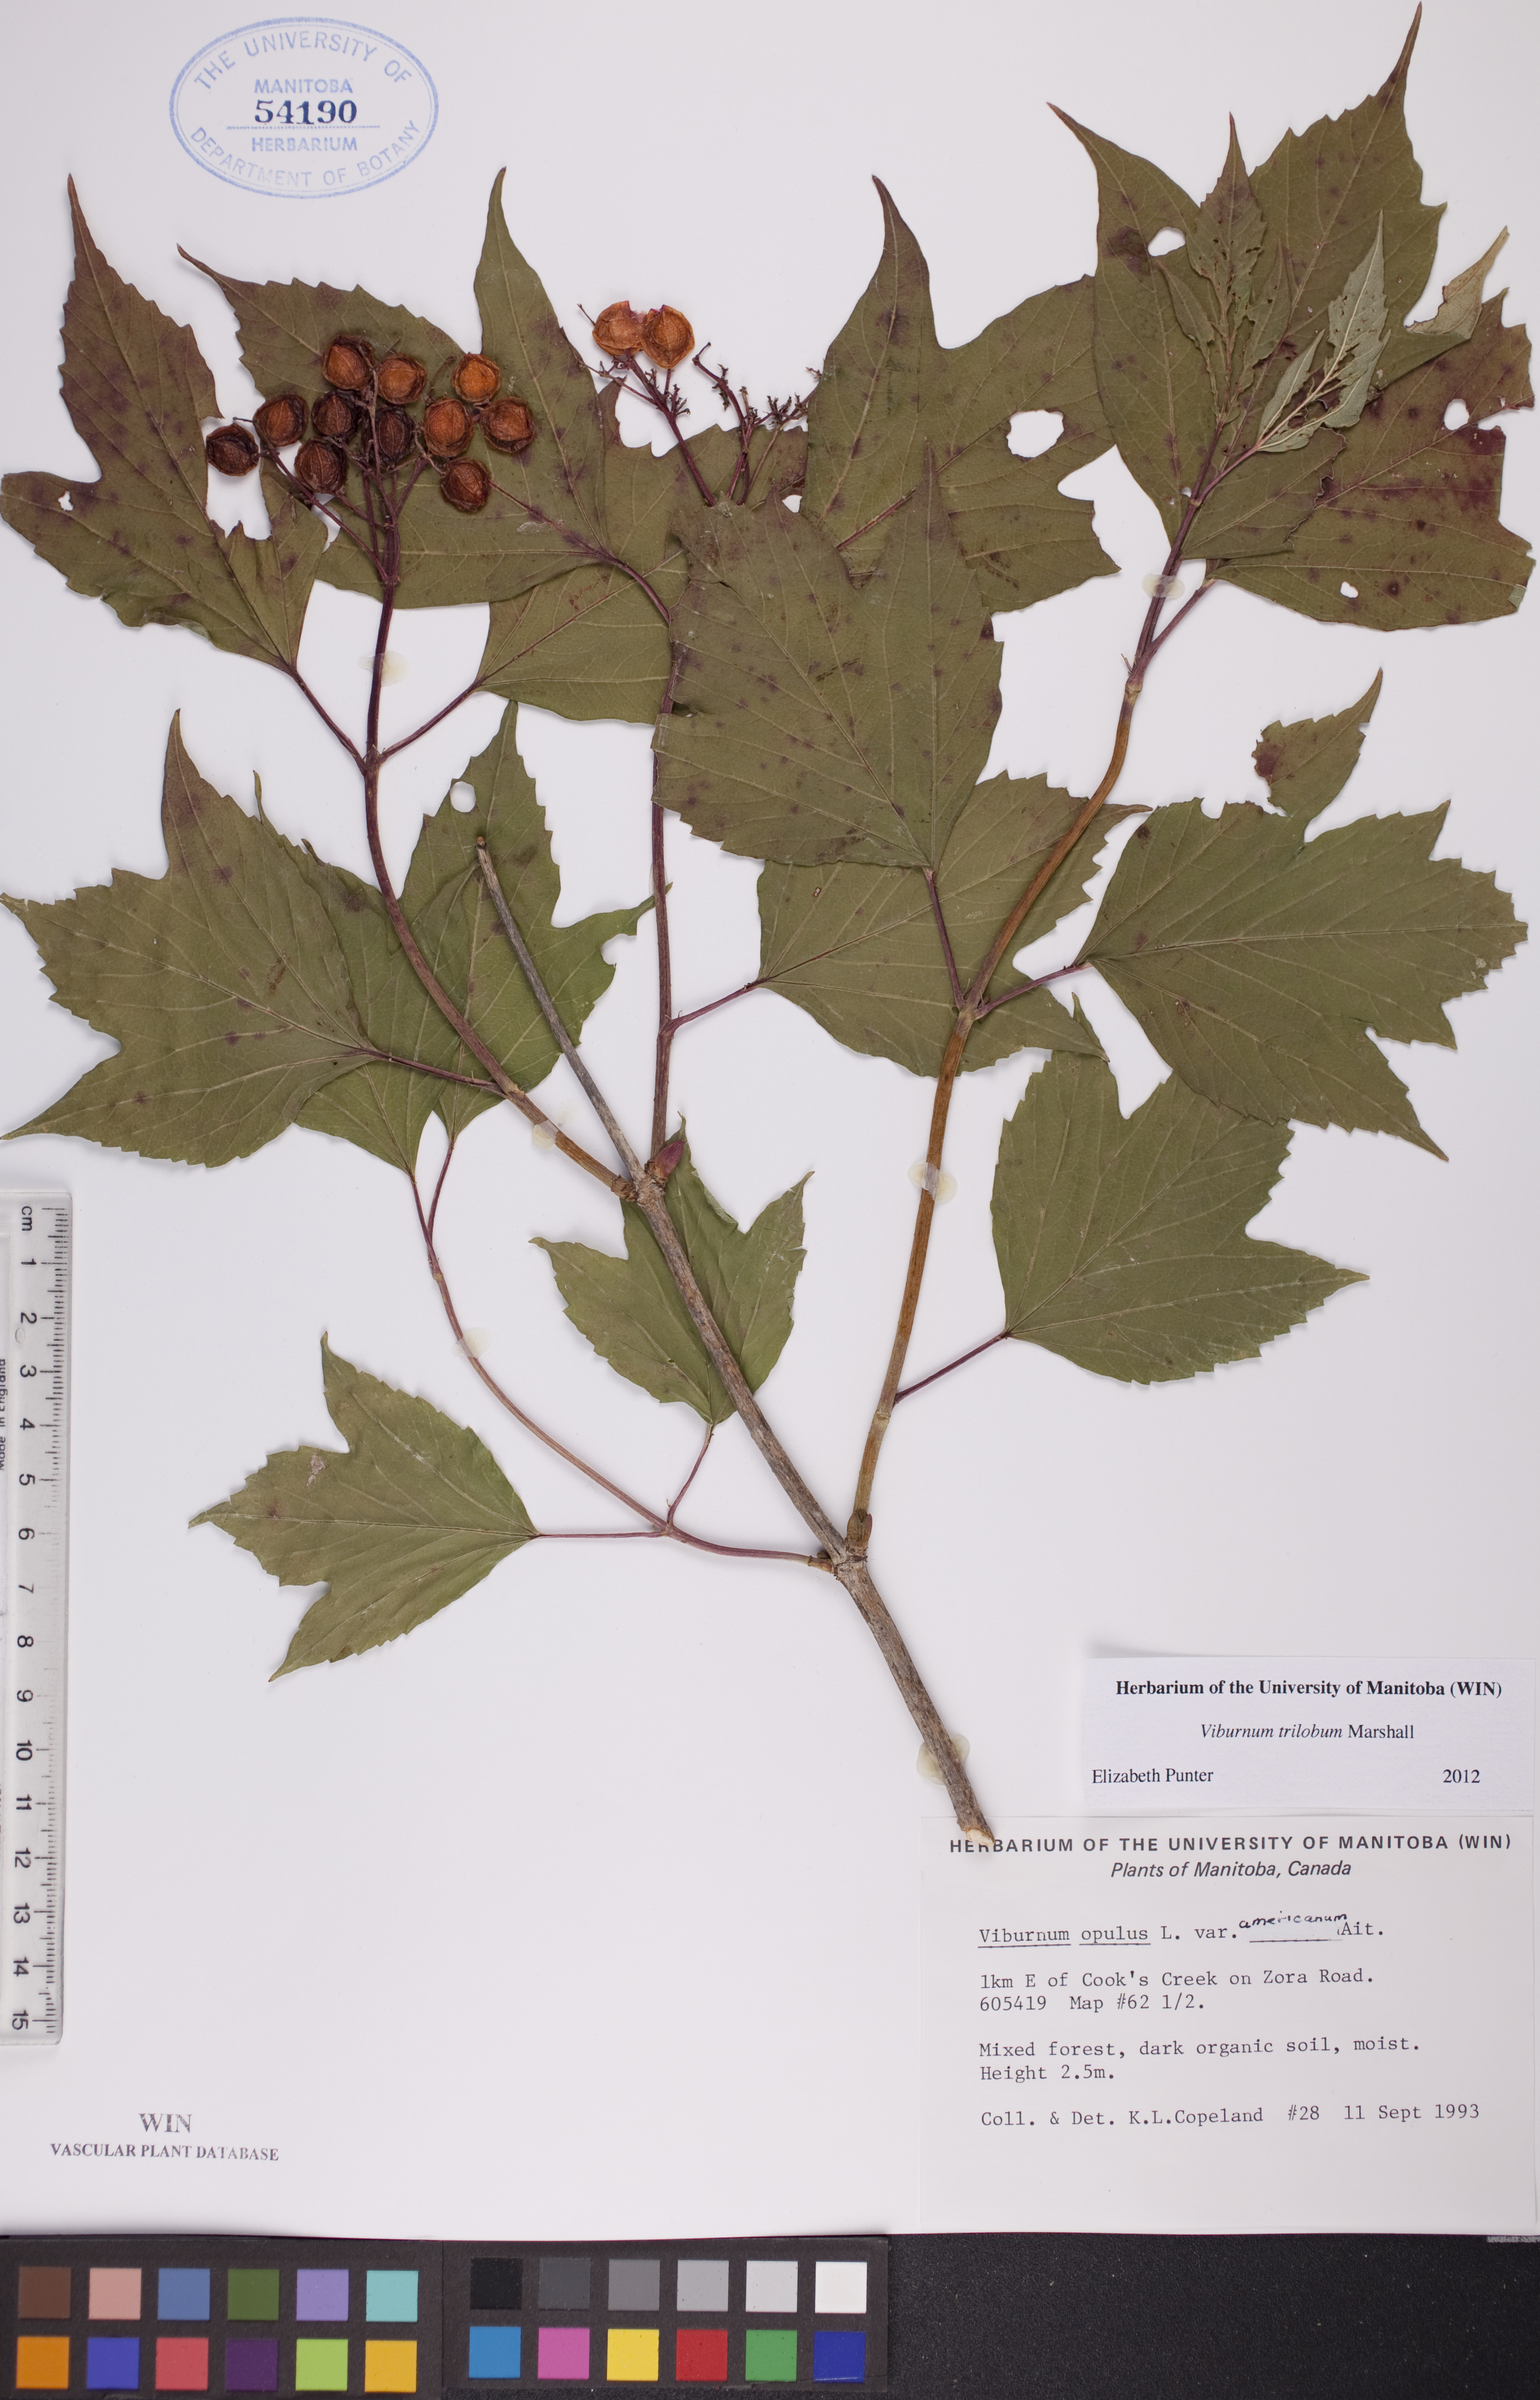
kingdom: Plantae
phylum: Tracheophyta
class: Magnoliopsida
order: Dipsacales
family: Viburnaceae
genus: Viburnum
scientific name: Viburnum trilobum
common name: American cranberrybush
